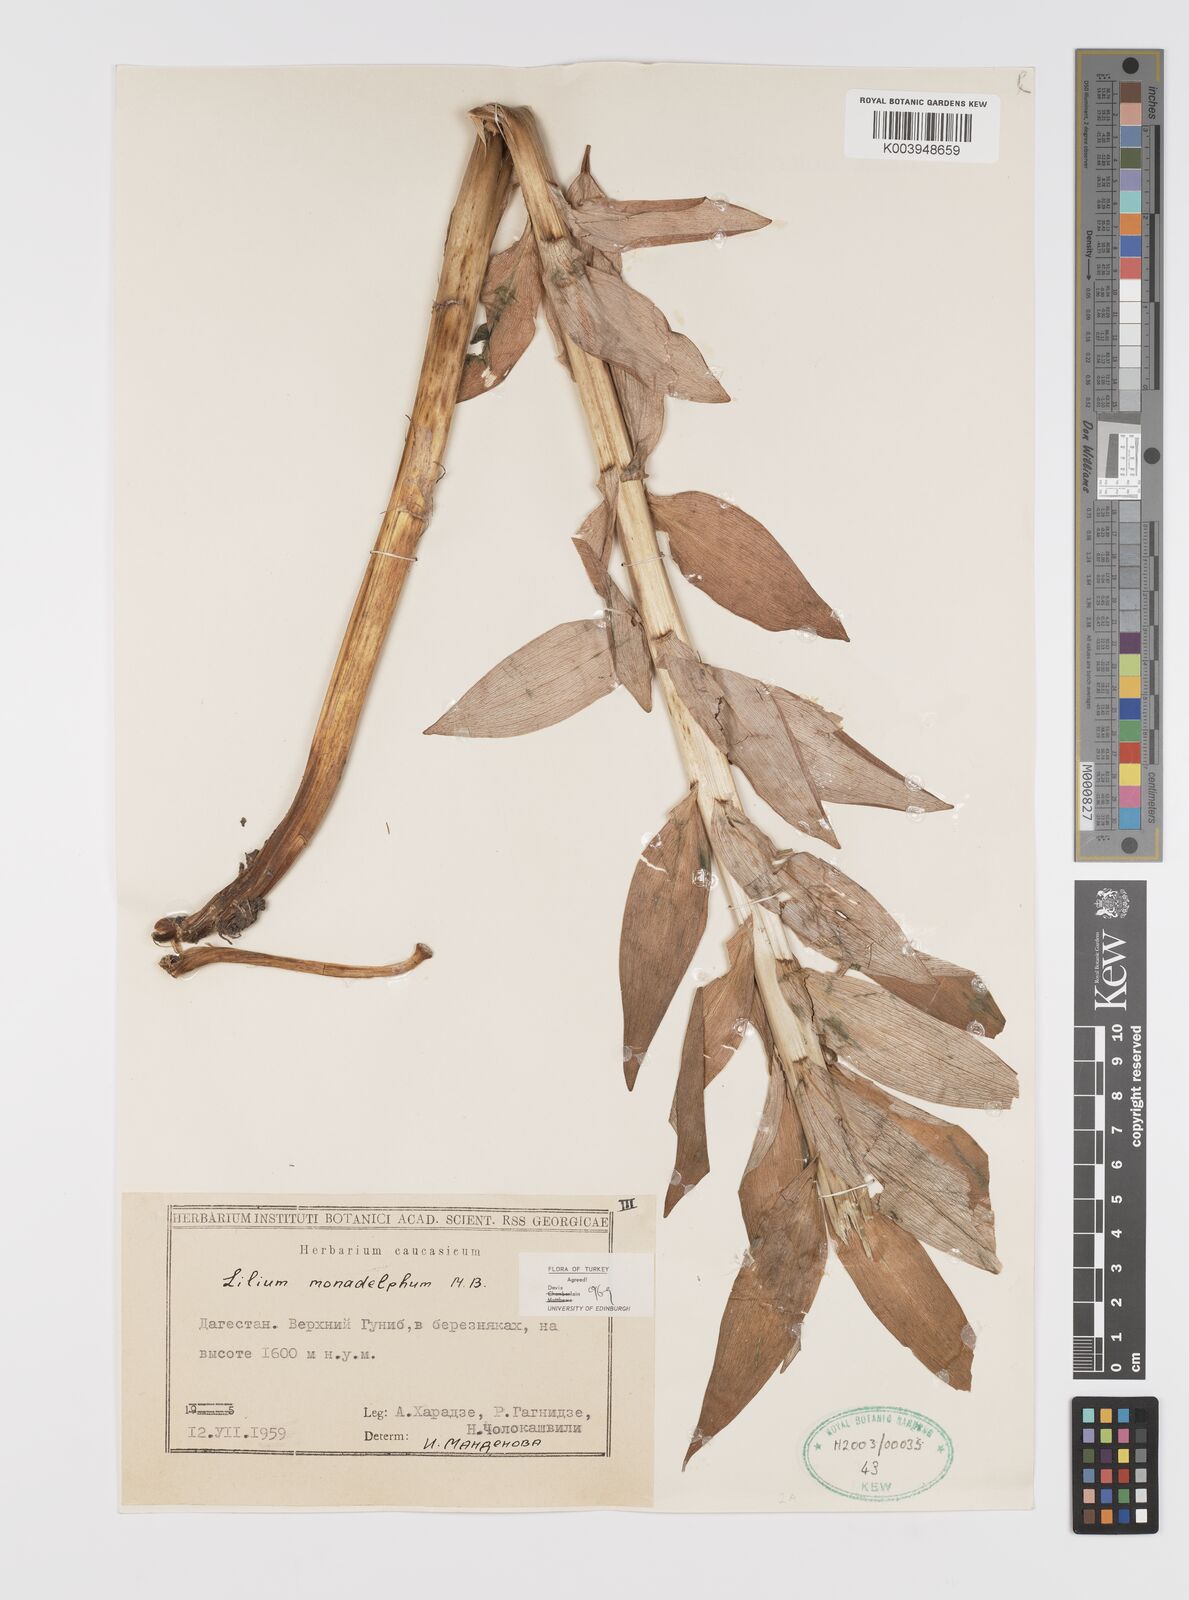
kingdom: Plantae
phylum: Tracheophyta
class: Liliopsida
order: Liliales
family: Liliaceae
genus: Lilium
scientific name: Lilium monadelphum
